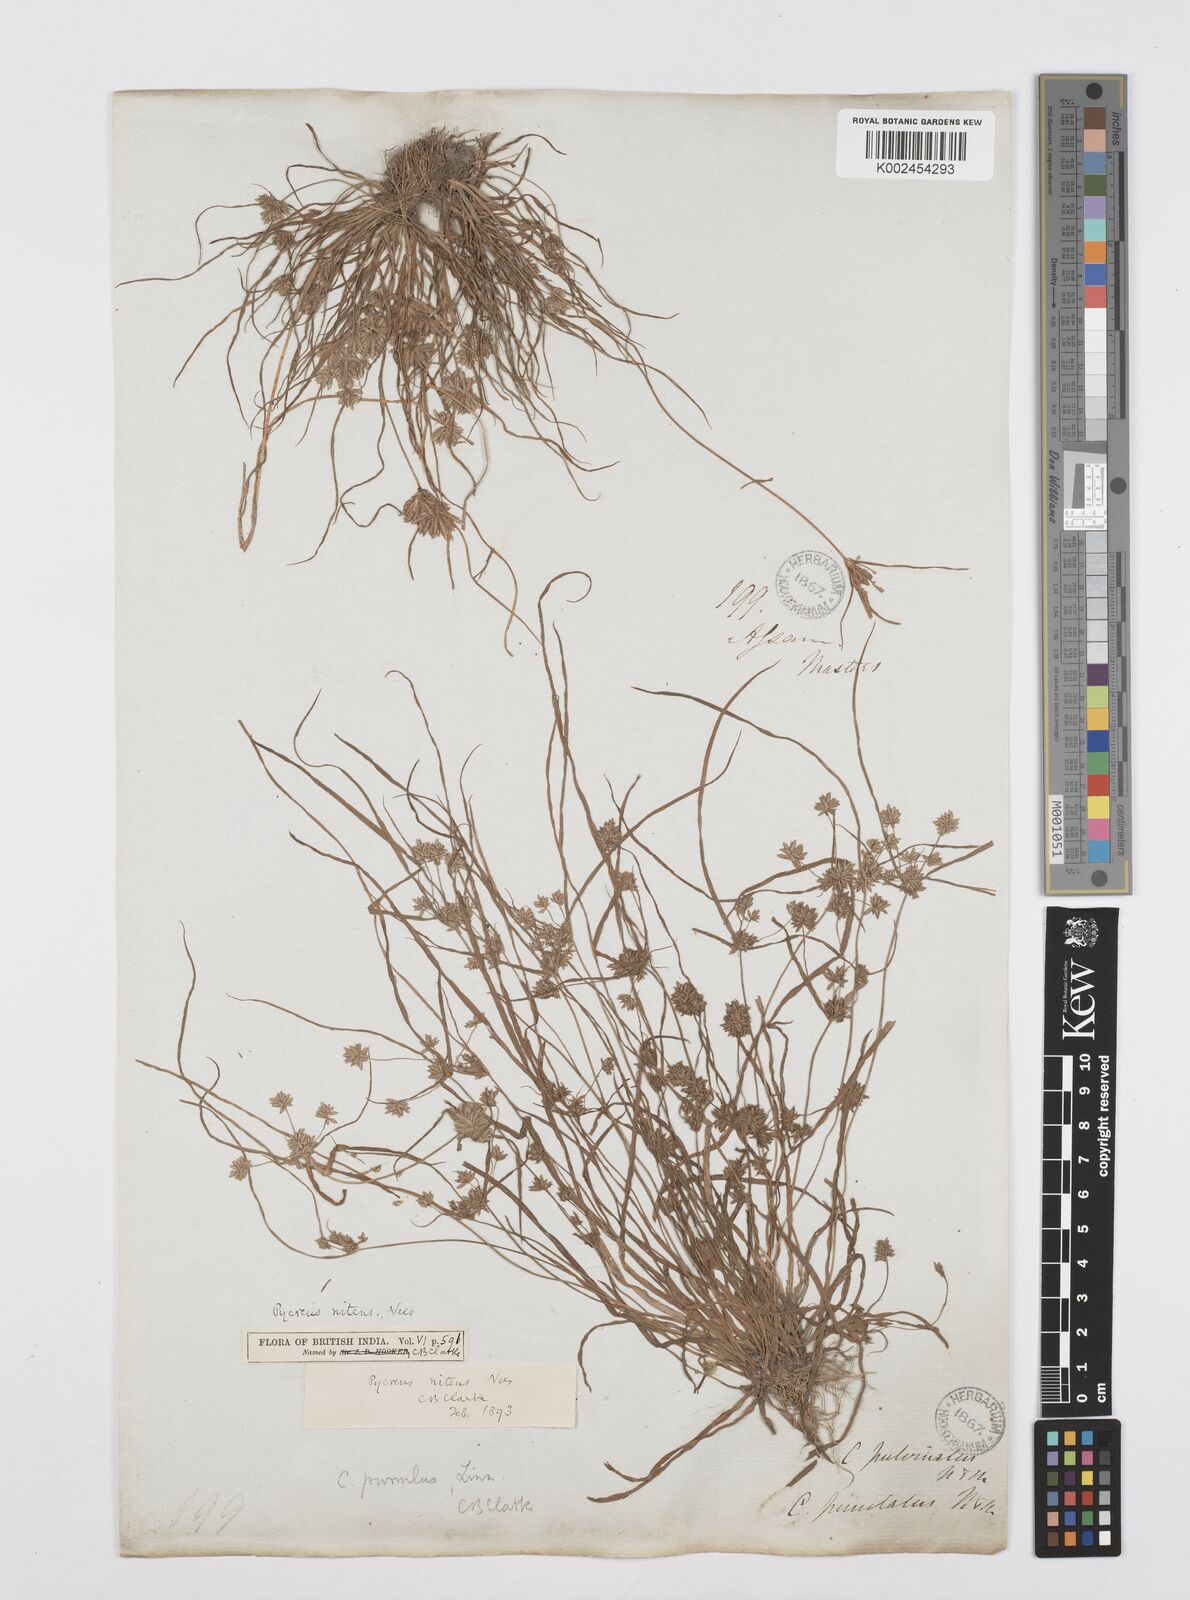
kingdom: Plantae
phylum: Tracheophyta
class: Liliopsida
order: Poales
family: Cyperaceae
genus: Cyperus
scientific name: Cyperus pumilus
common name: Low flatsedge
